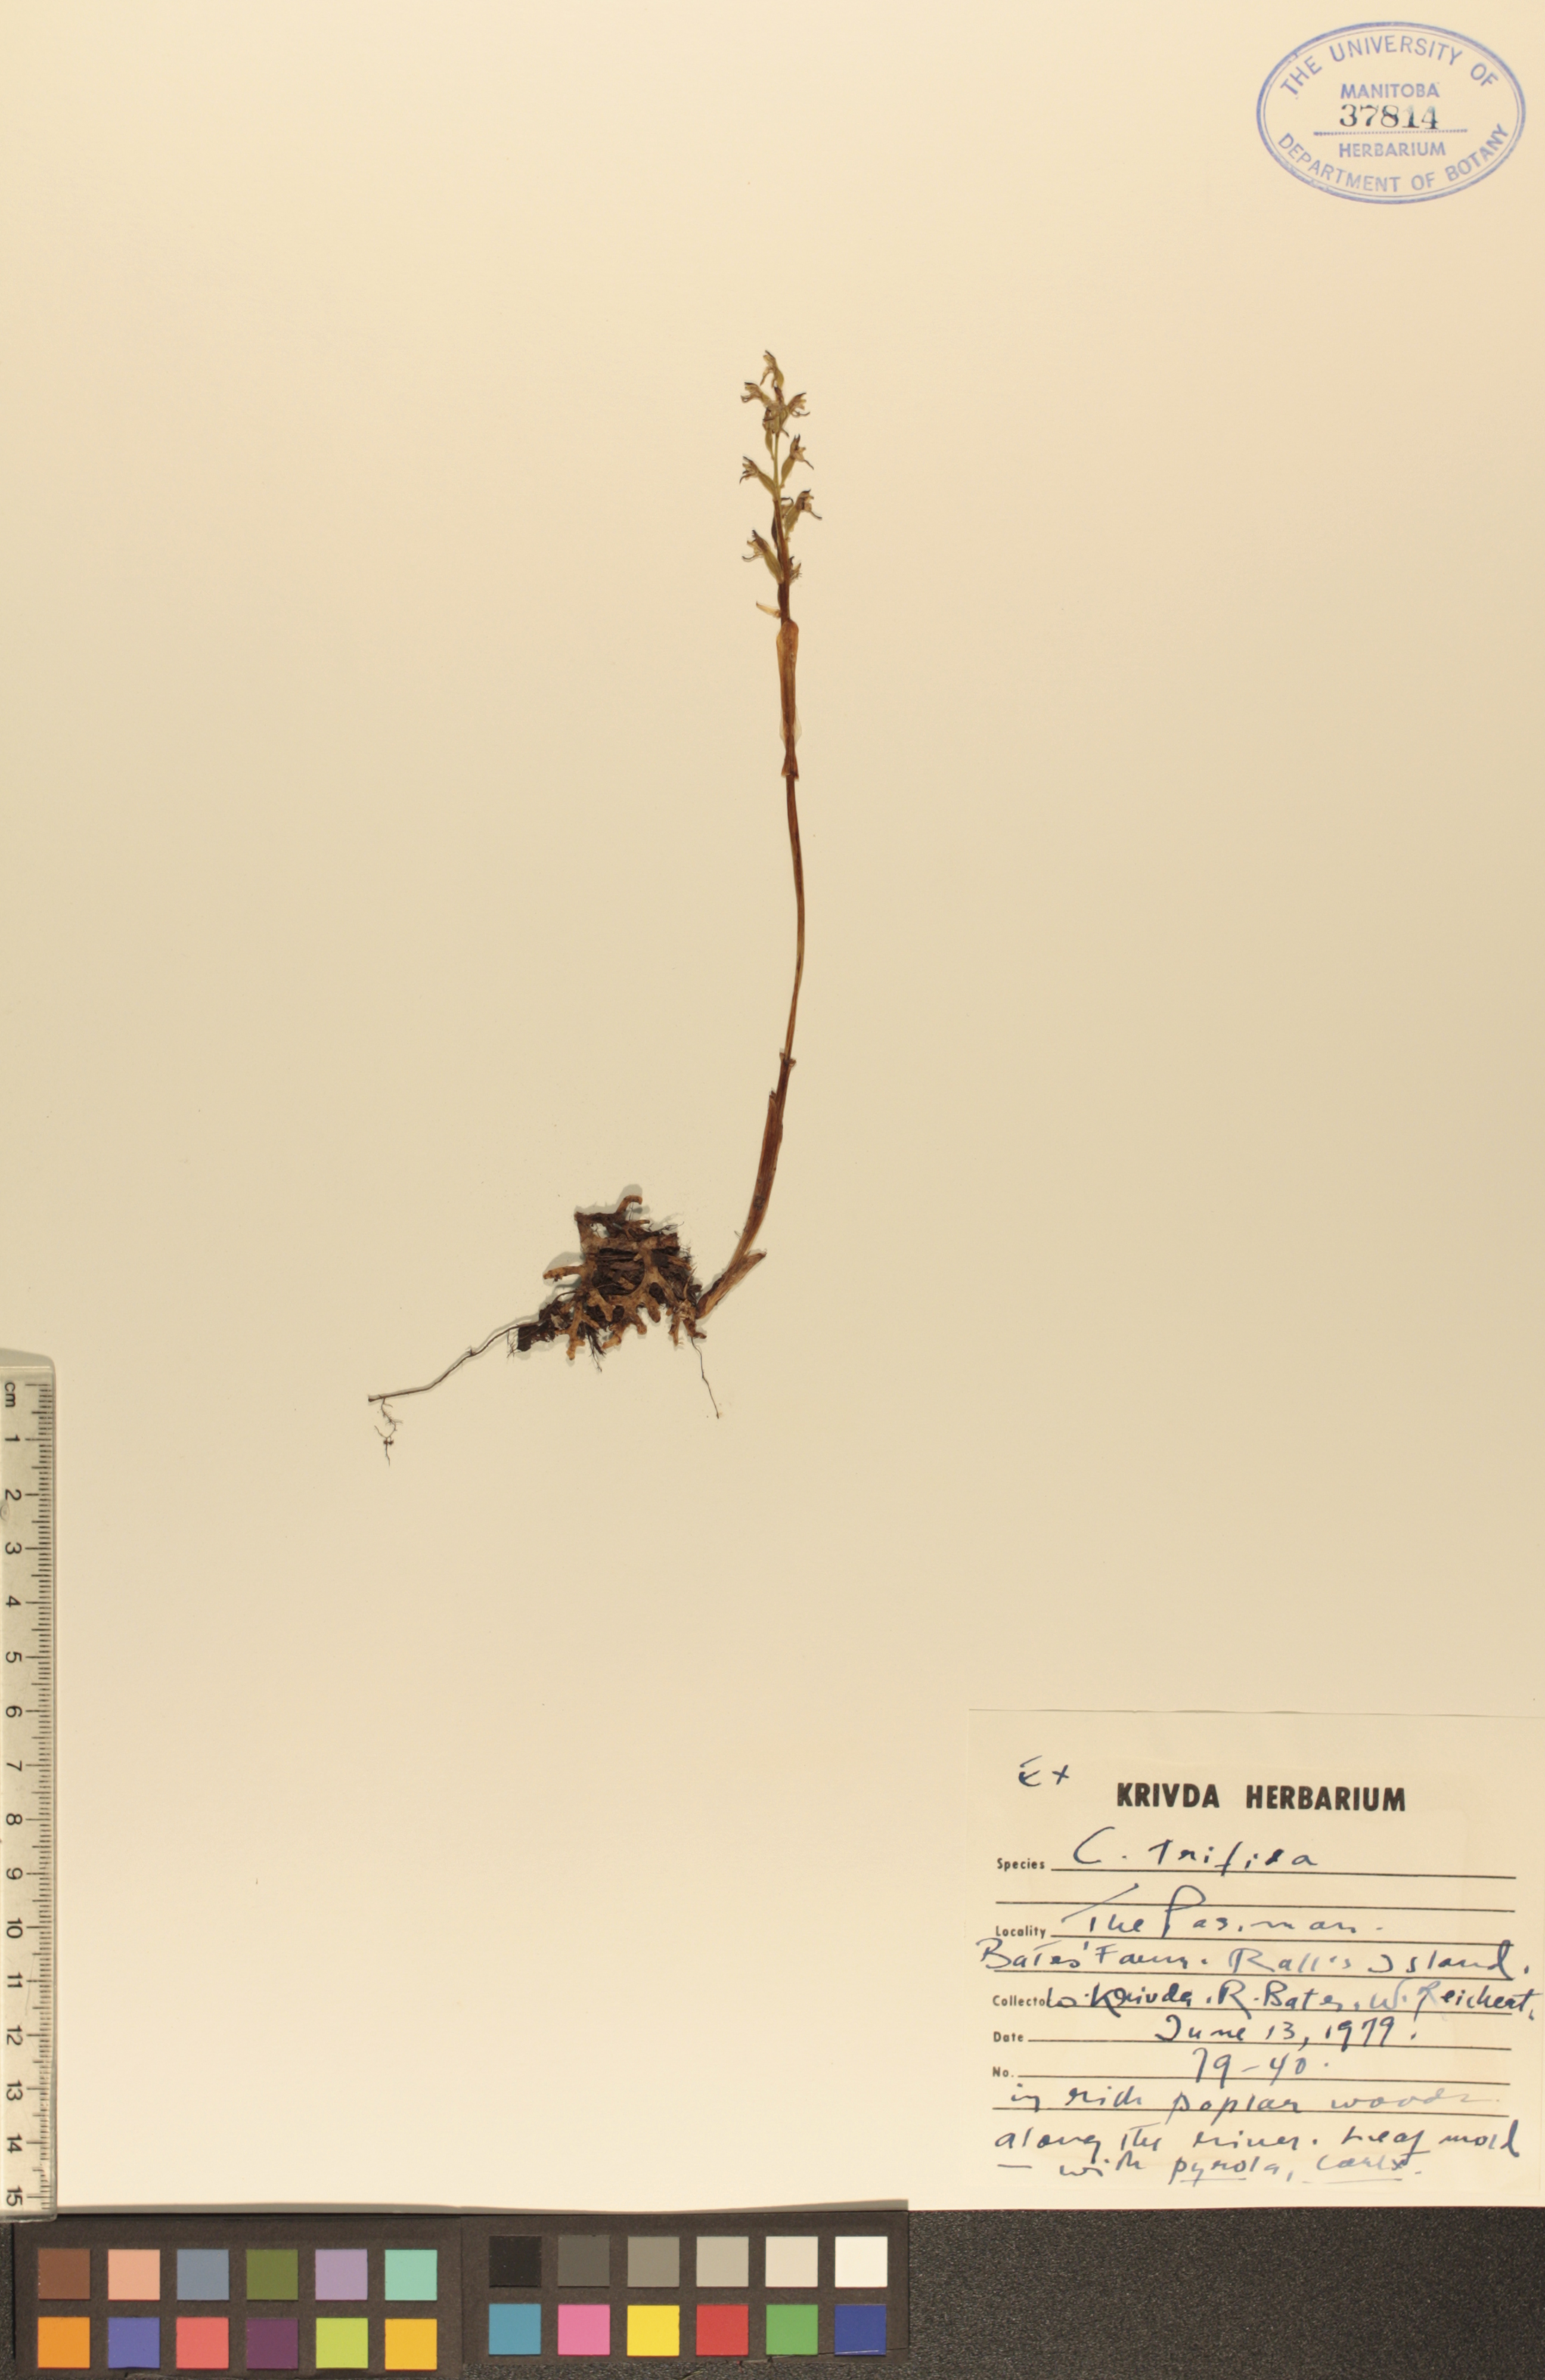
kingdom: Plantae
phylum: Tracheophyta
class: Liliopsida
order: Asparagales
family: Orchidaceae
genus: Corallorhiza
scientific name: Corallorhiza trifida
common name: Yellow coralroot
